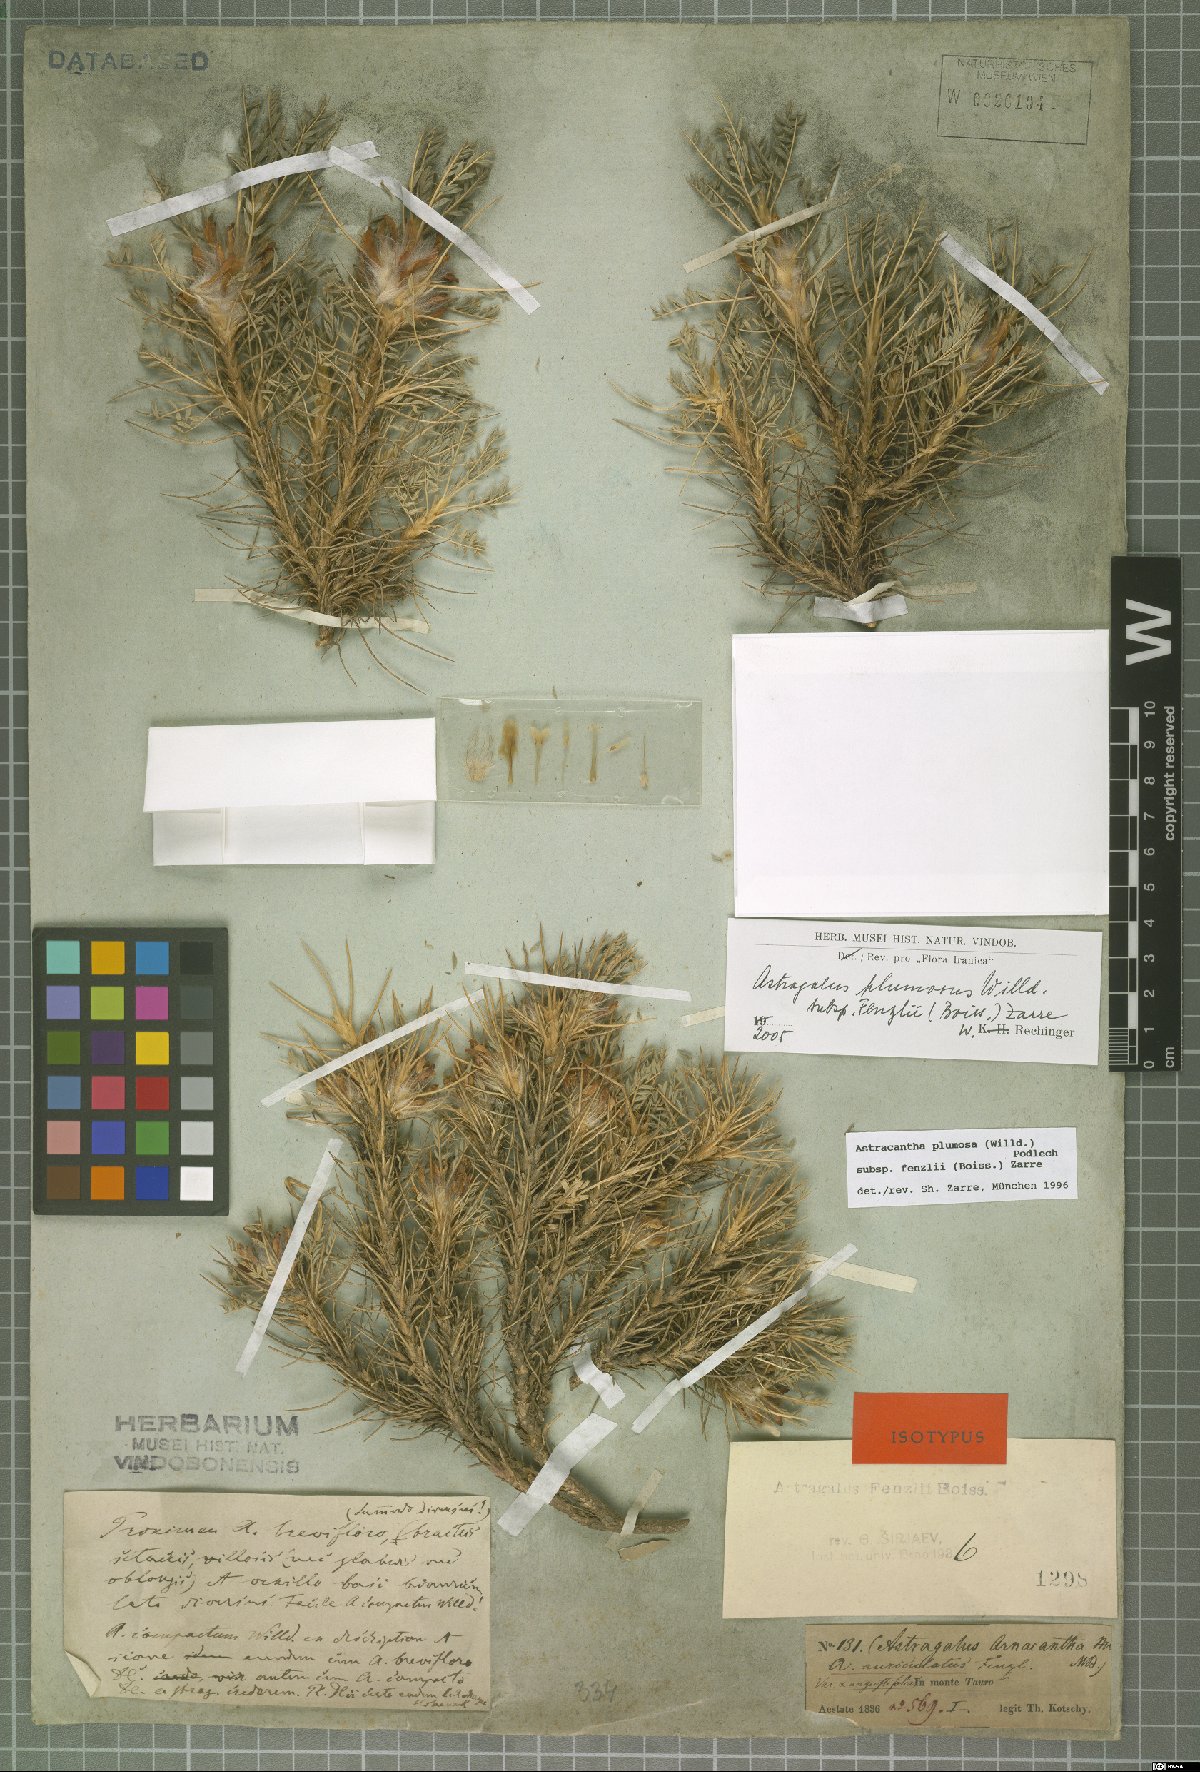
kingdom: Plantae
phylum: Tracheophyta
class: Magnoliopsida
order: Fabales
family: Fabaceae
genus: Astragalus
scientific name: Astragalus plumosus
